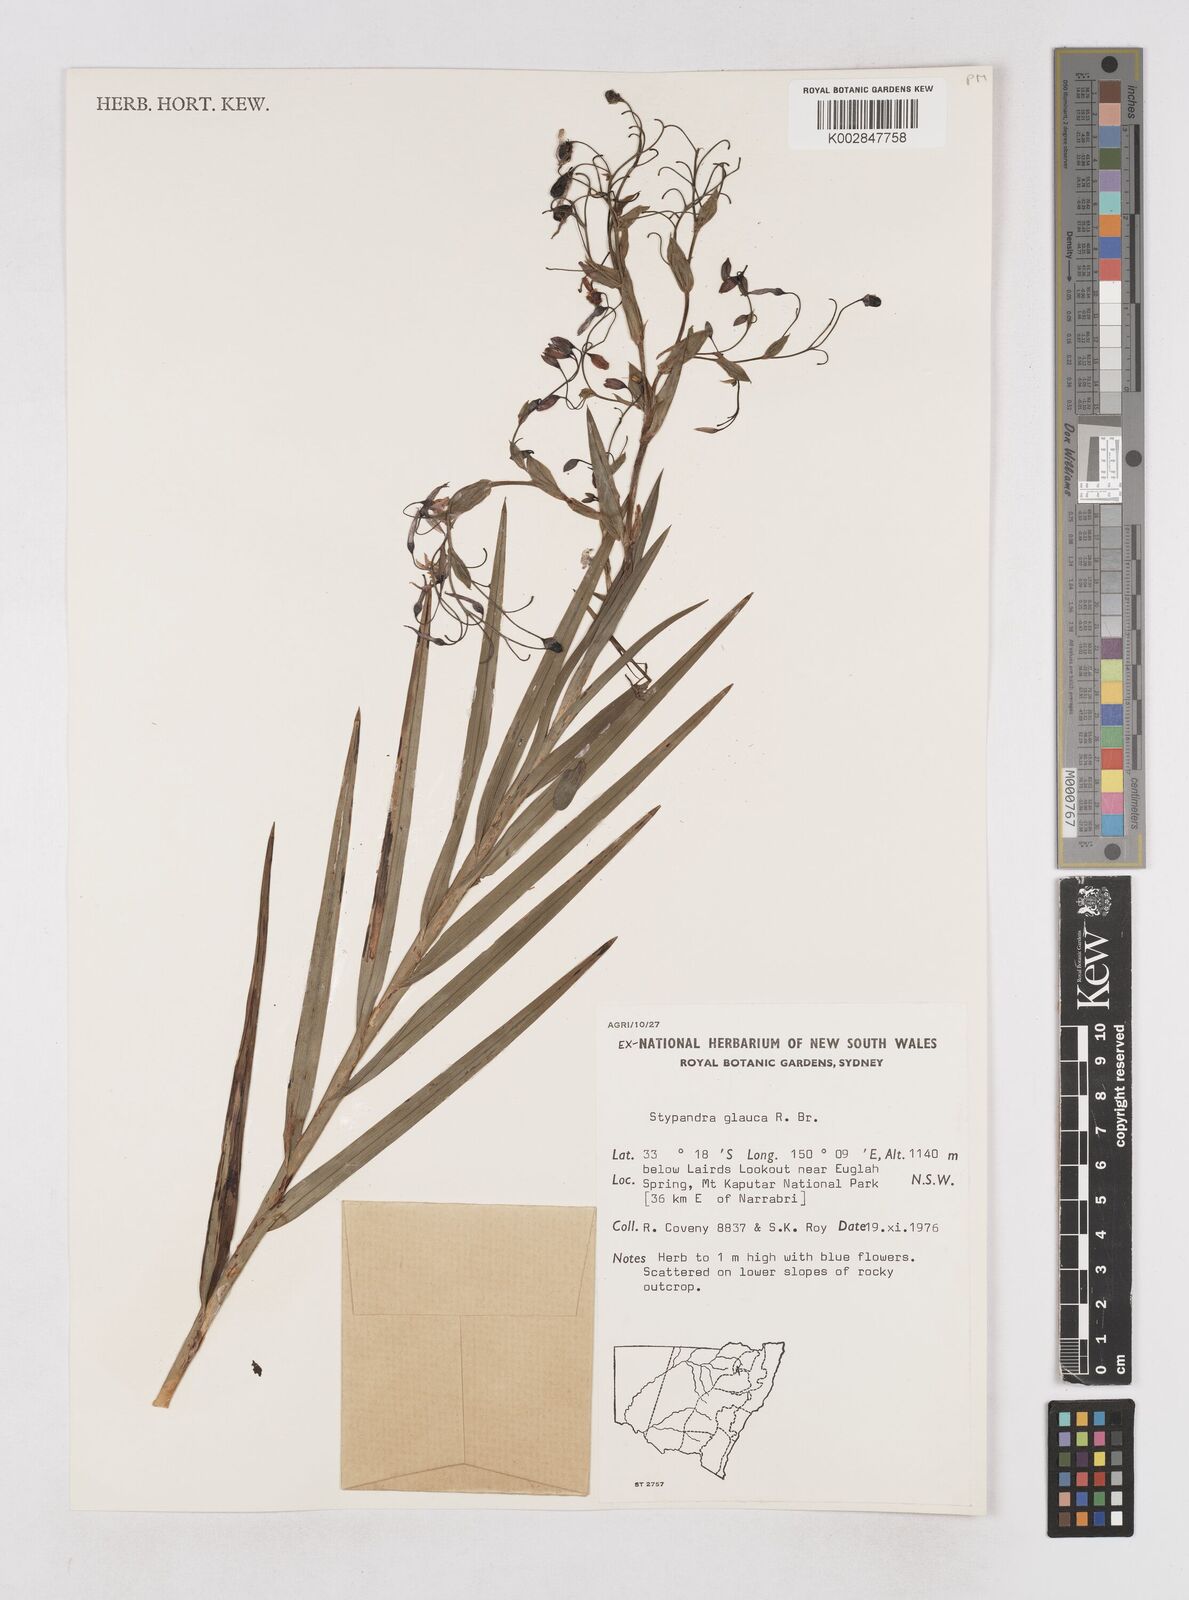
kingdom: Plantae
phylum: Tracheophyta
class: Liliopsida
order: Asparagales
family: Asphodelaceae
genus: Stypandra
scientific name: Stypandra glauca
